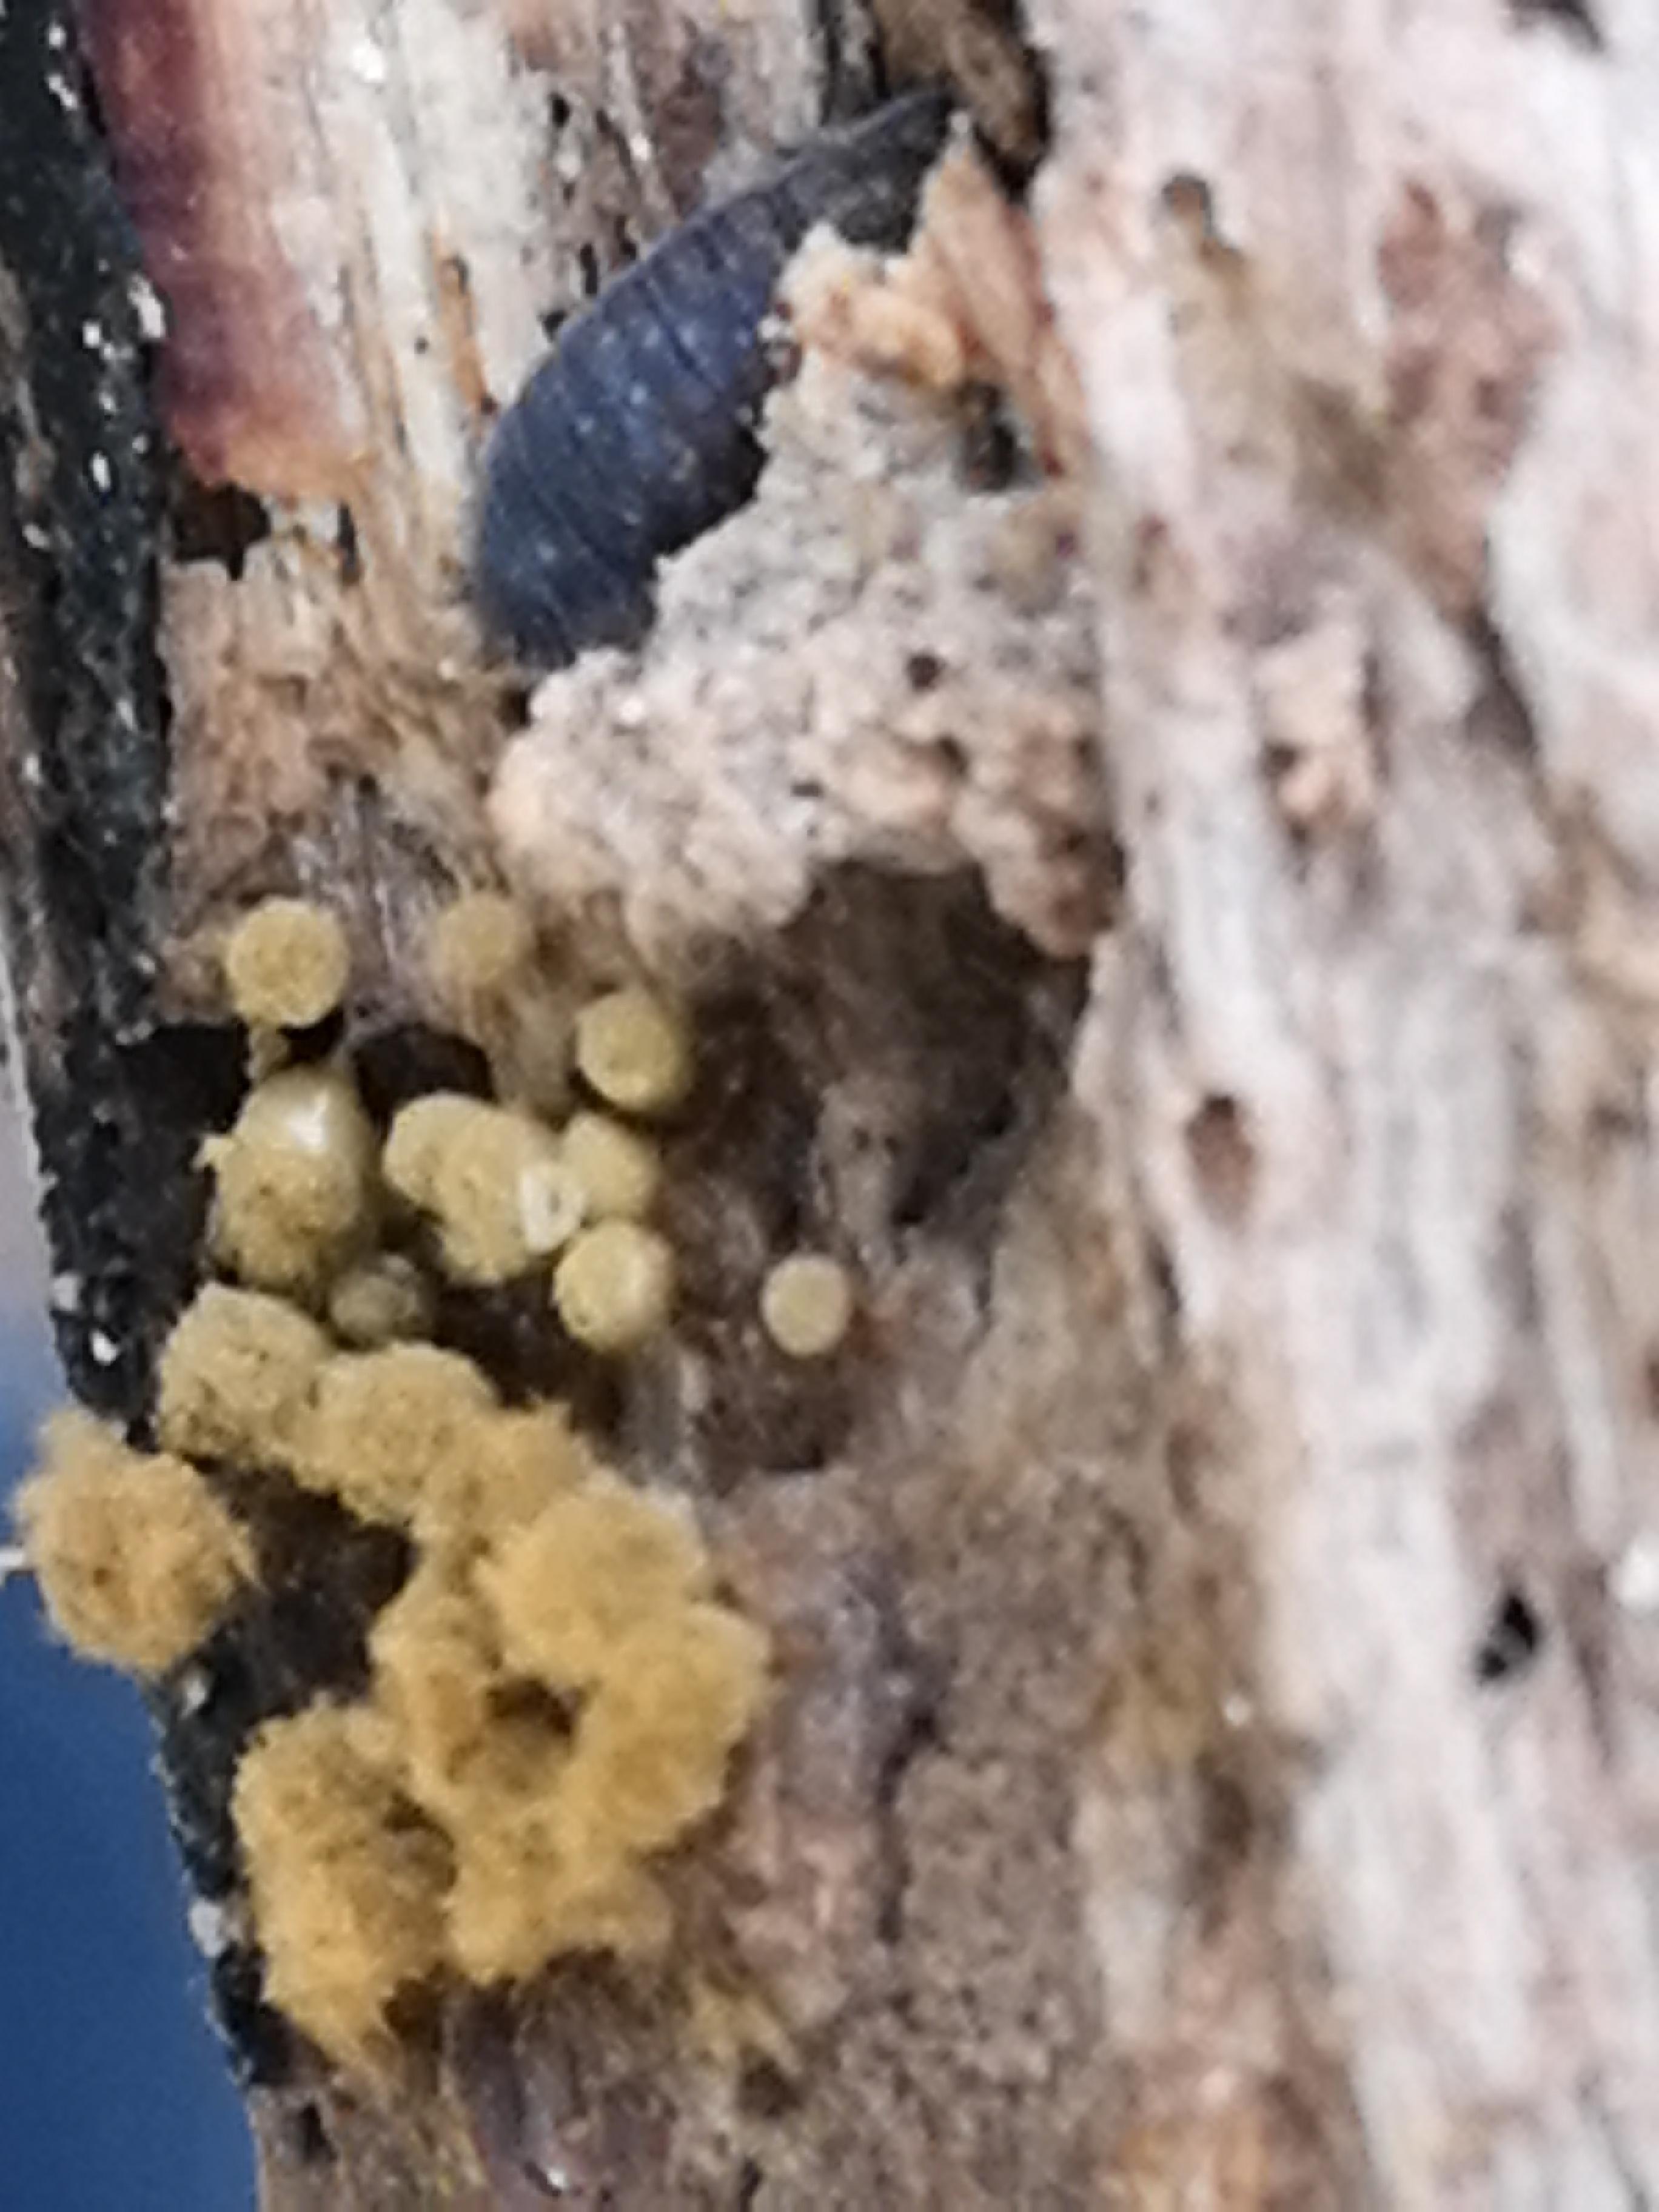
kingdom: Protozoa
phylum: Mycetozoa
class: Myxomycetes
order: Trichiales
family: Trichiaceae
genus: Trichia
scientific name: Trichia crateriformis
